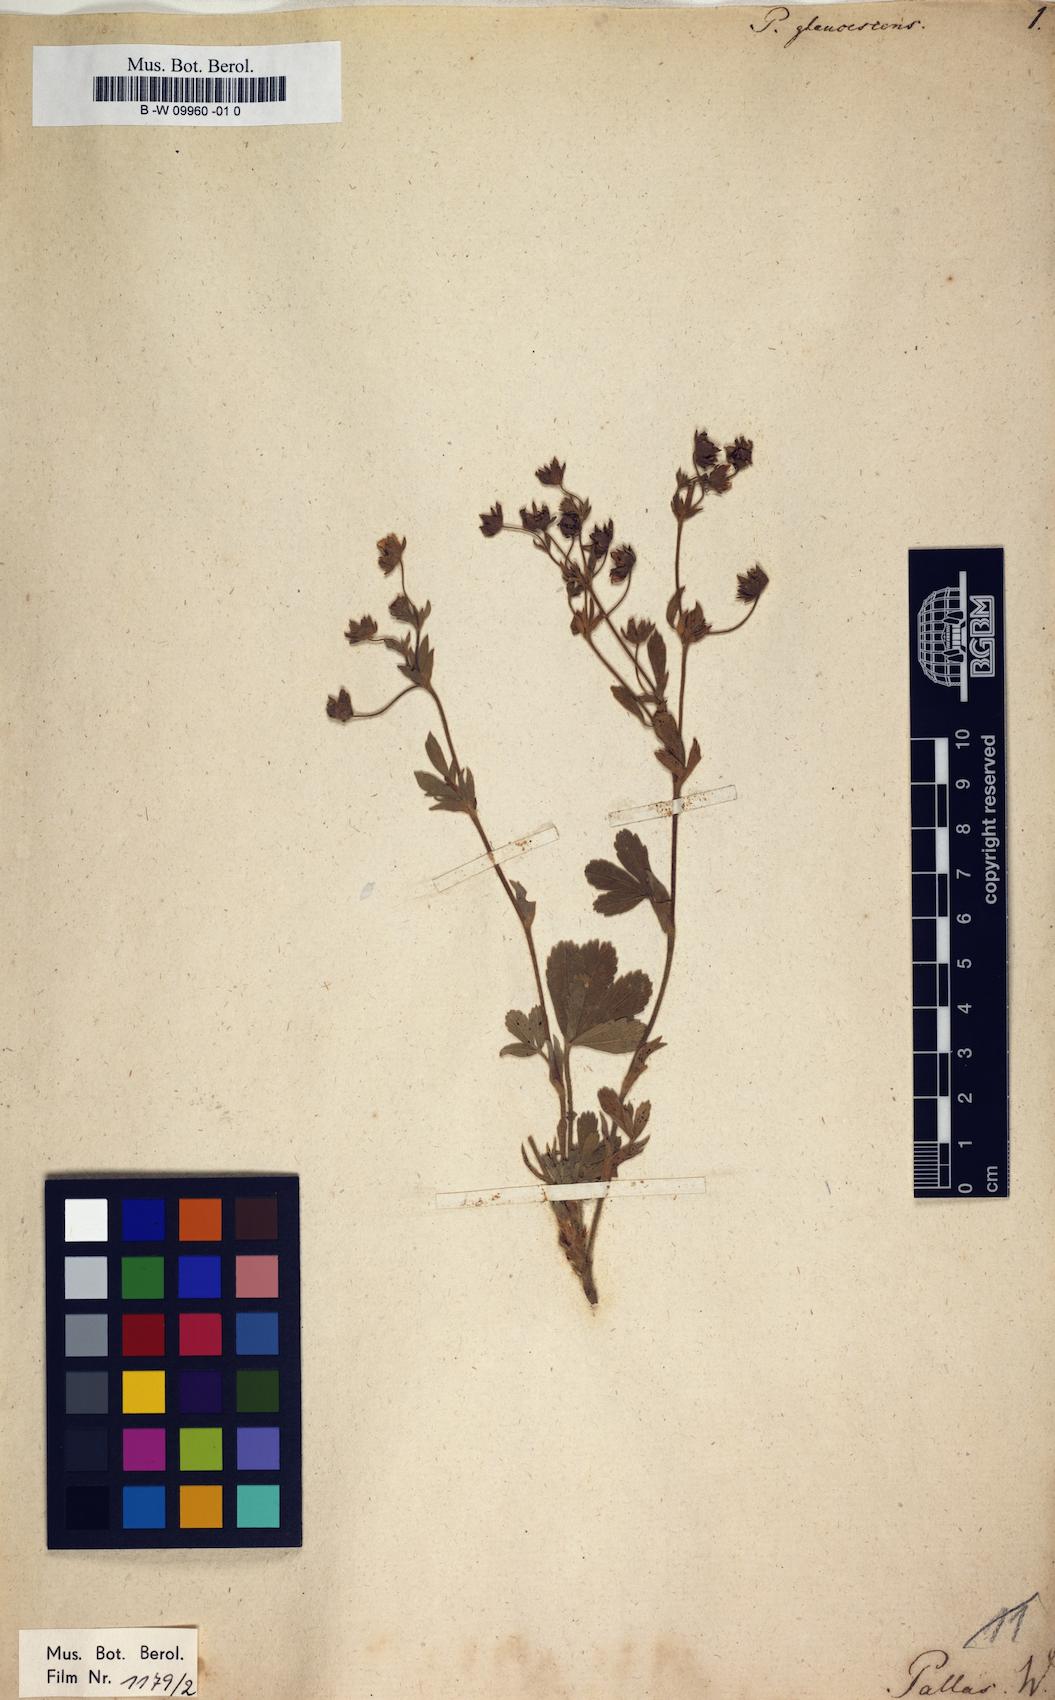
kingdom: Plantae
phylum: Tracheophyta
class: Magnoliopsida
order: Rosales
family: Rosaceae
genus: Potentilla
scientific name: Potentilla glaucescens
